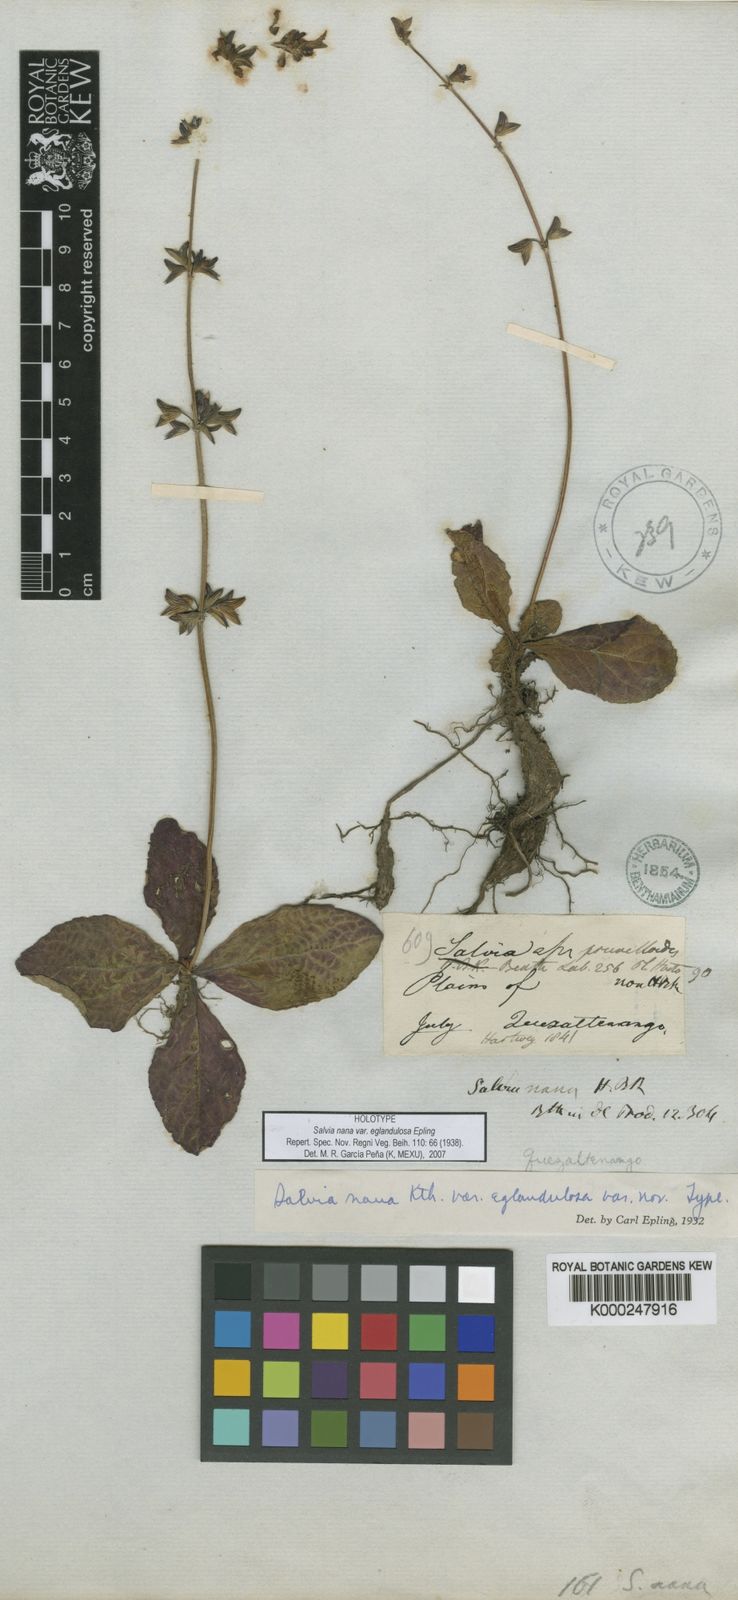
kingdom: Plantae
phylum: Tracheophyta
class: Magnoliopsida
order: Lamiales
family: Lamiaceae
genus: Salvia
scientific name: Salvia
